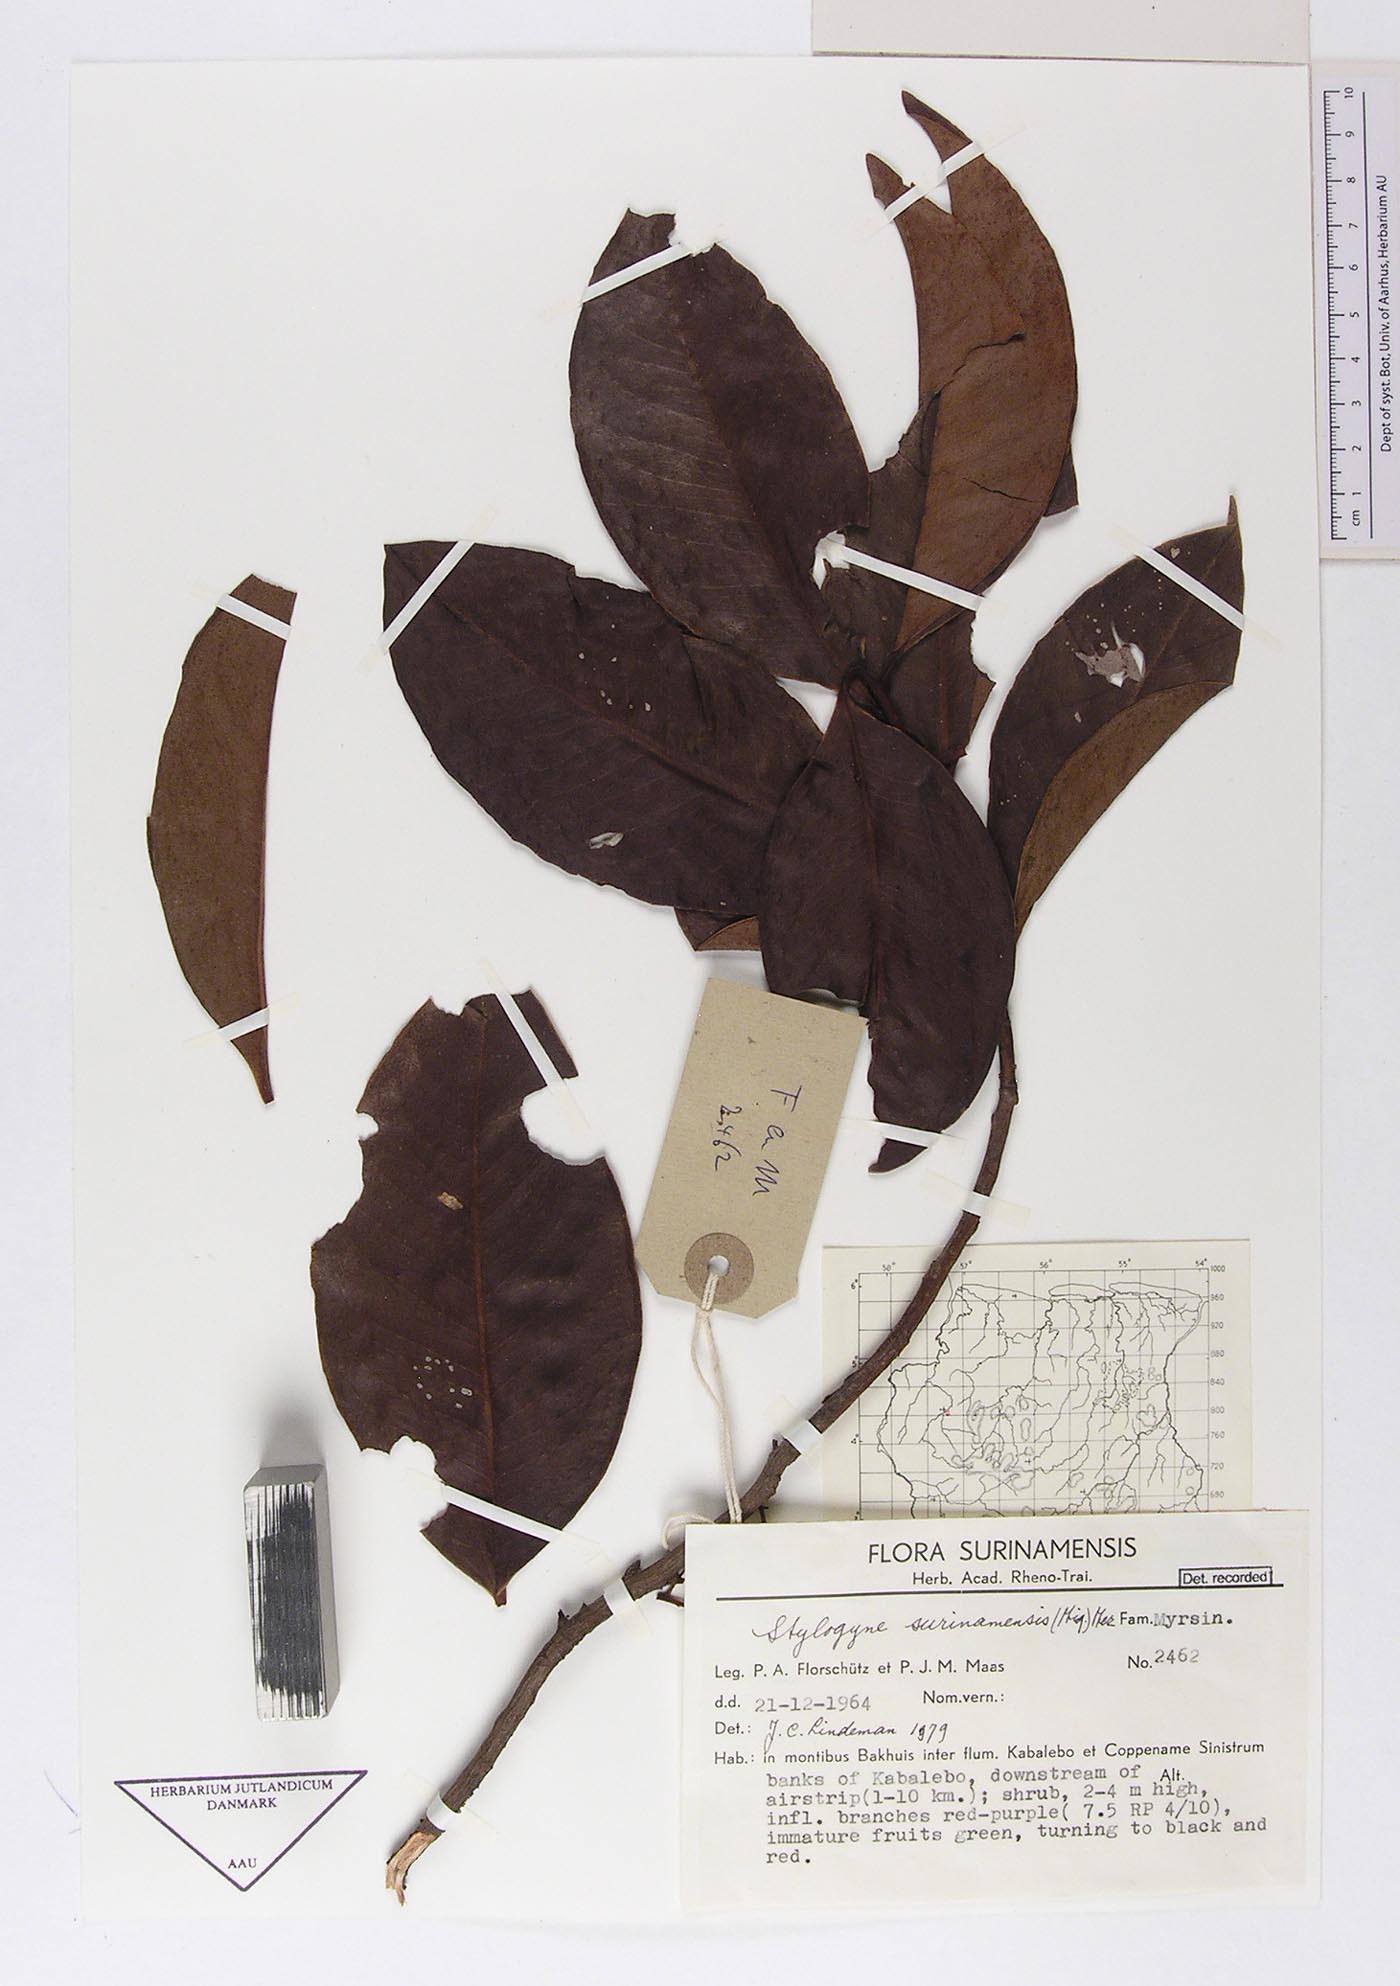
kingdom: Plantae
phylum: Tracheophyta
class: Magnoliopsida
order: Ericales
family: Primulaceae
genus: Stylogyne
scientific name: Stylogyne orinocensis
